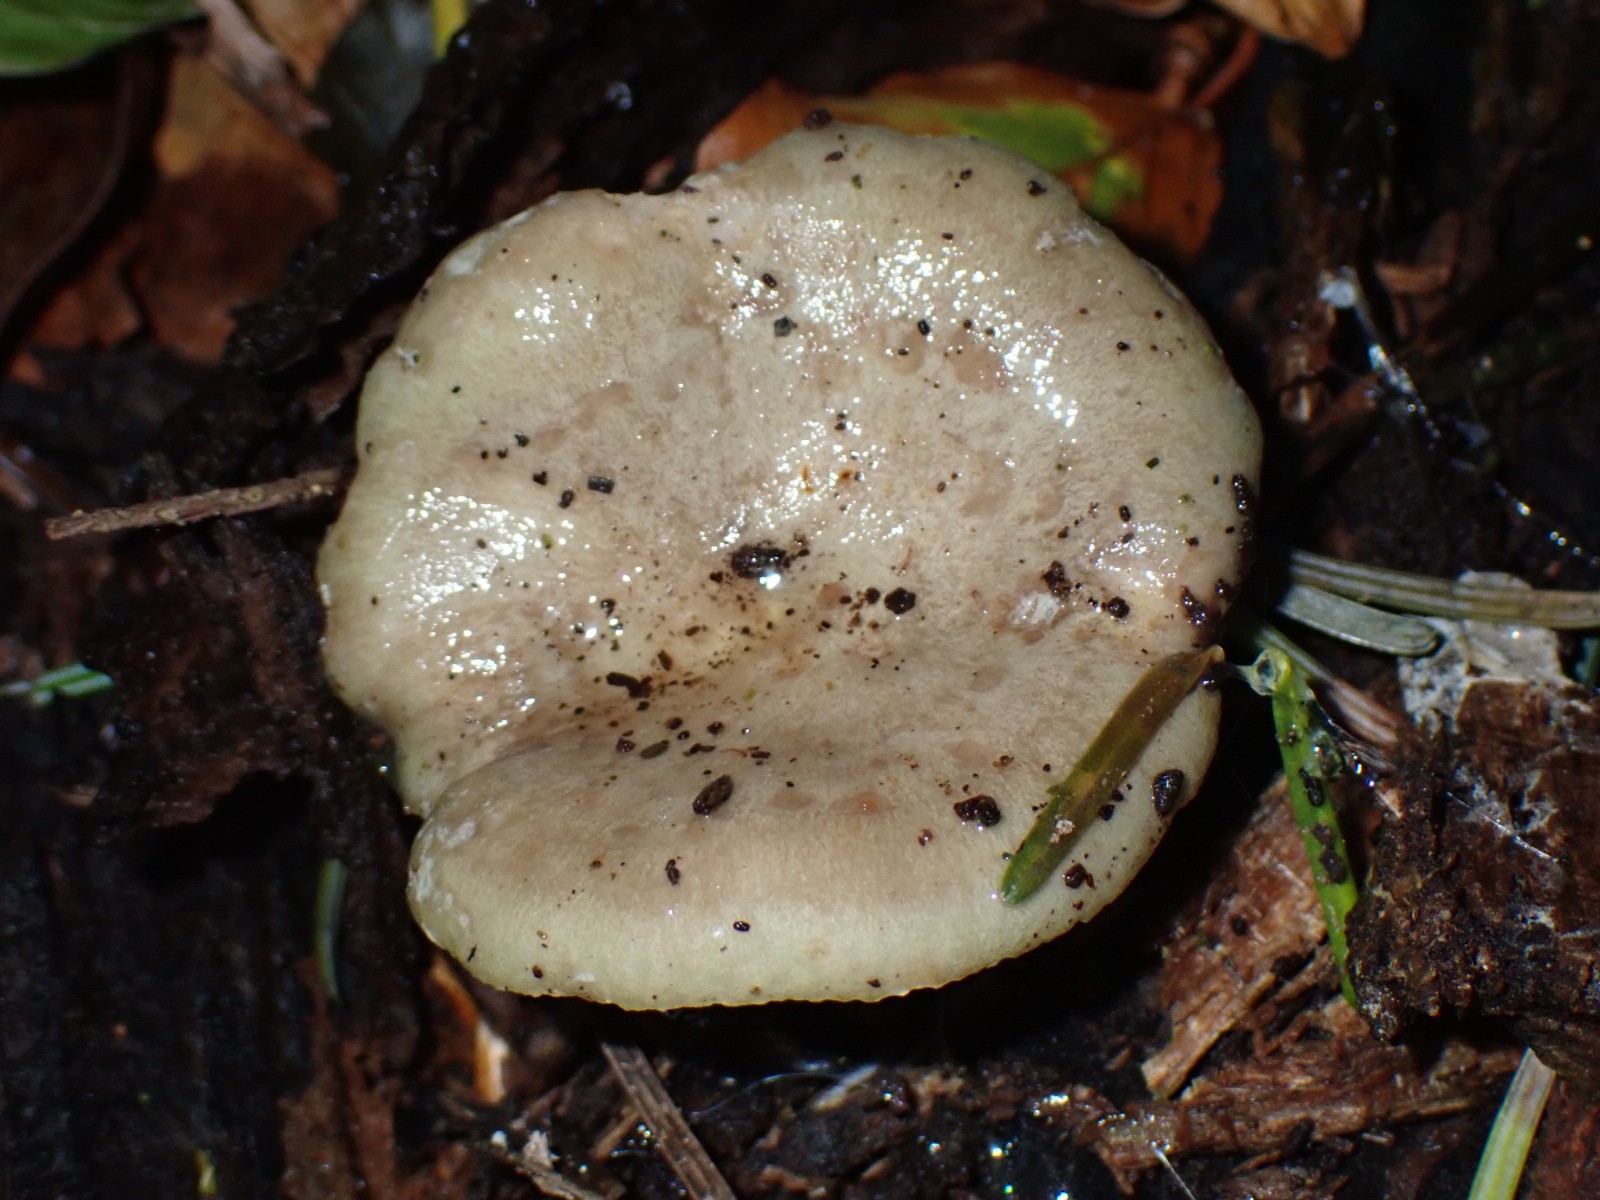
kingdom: Fungi
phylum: Basidiomycota
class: Agaricomycetes
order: Russulales
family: Russulaceae
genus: Lactarius
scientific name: Lactarius pallidus
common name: bleg mælkehat
